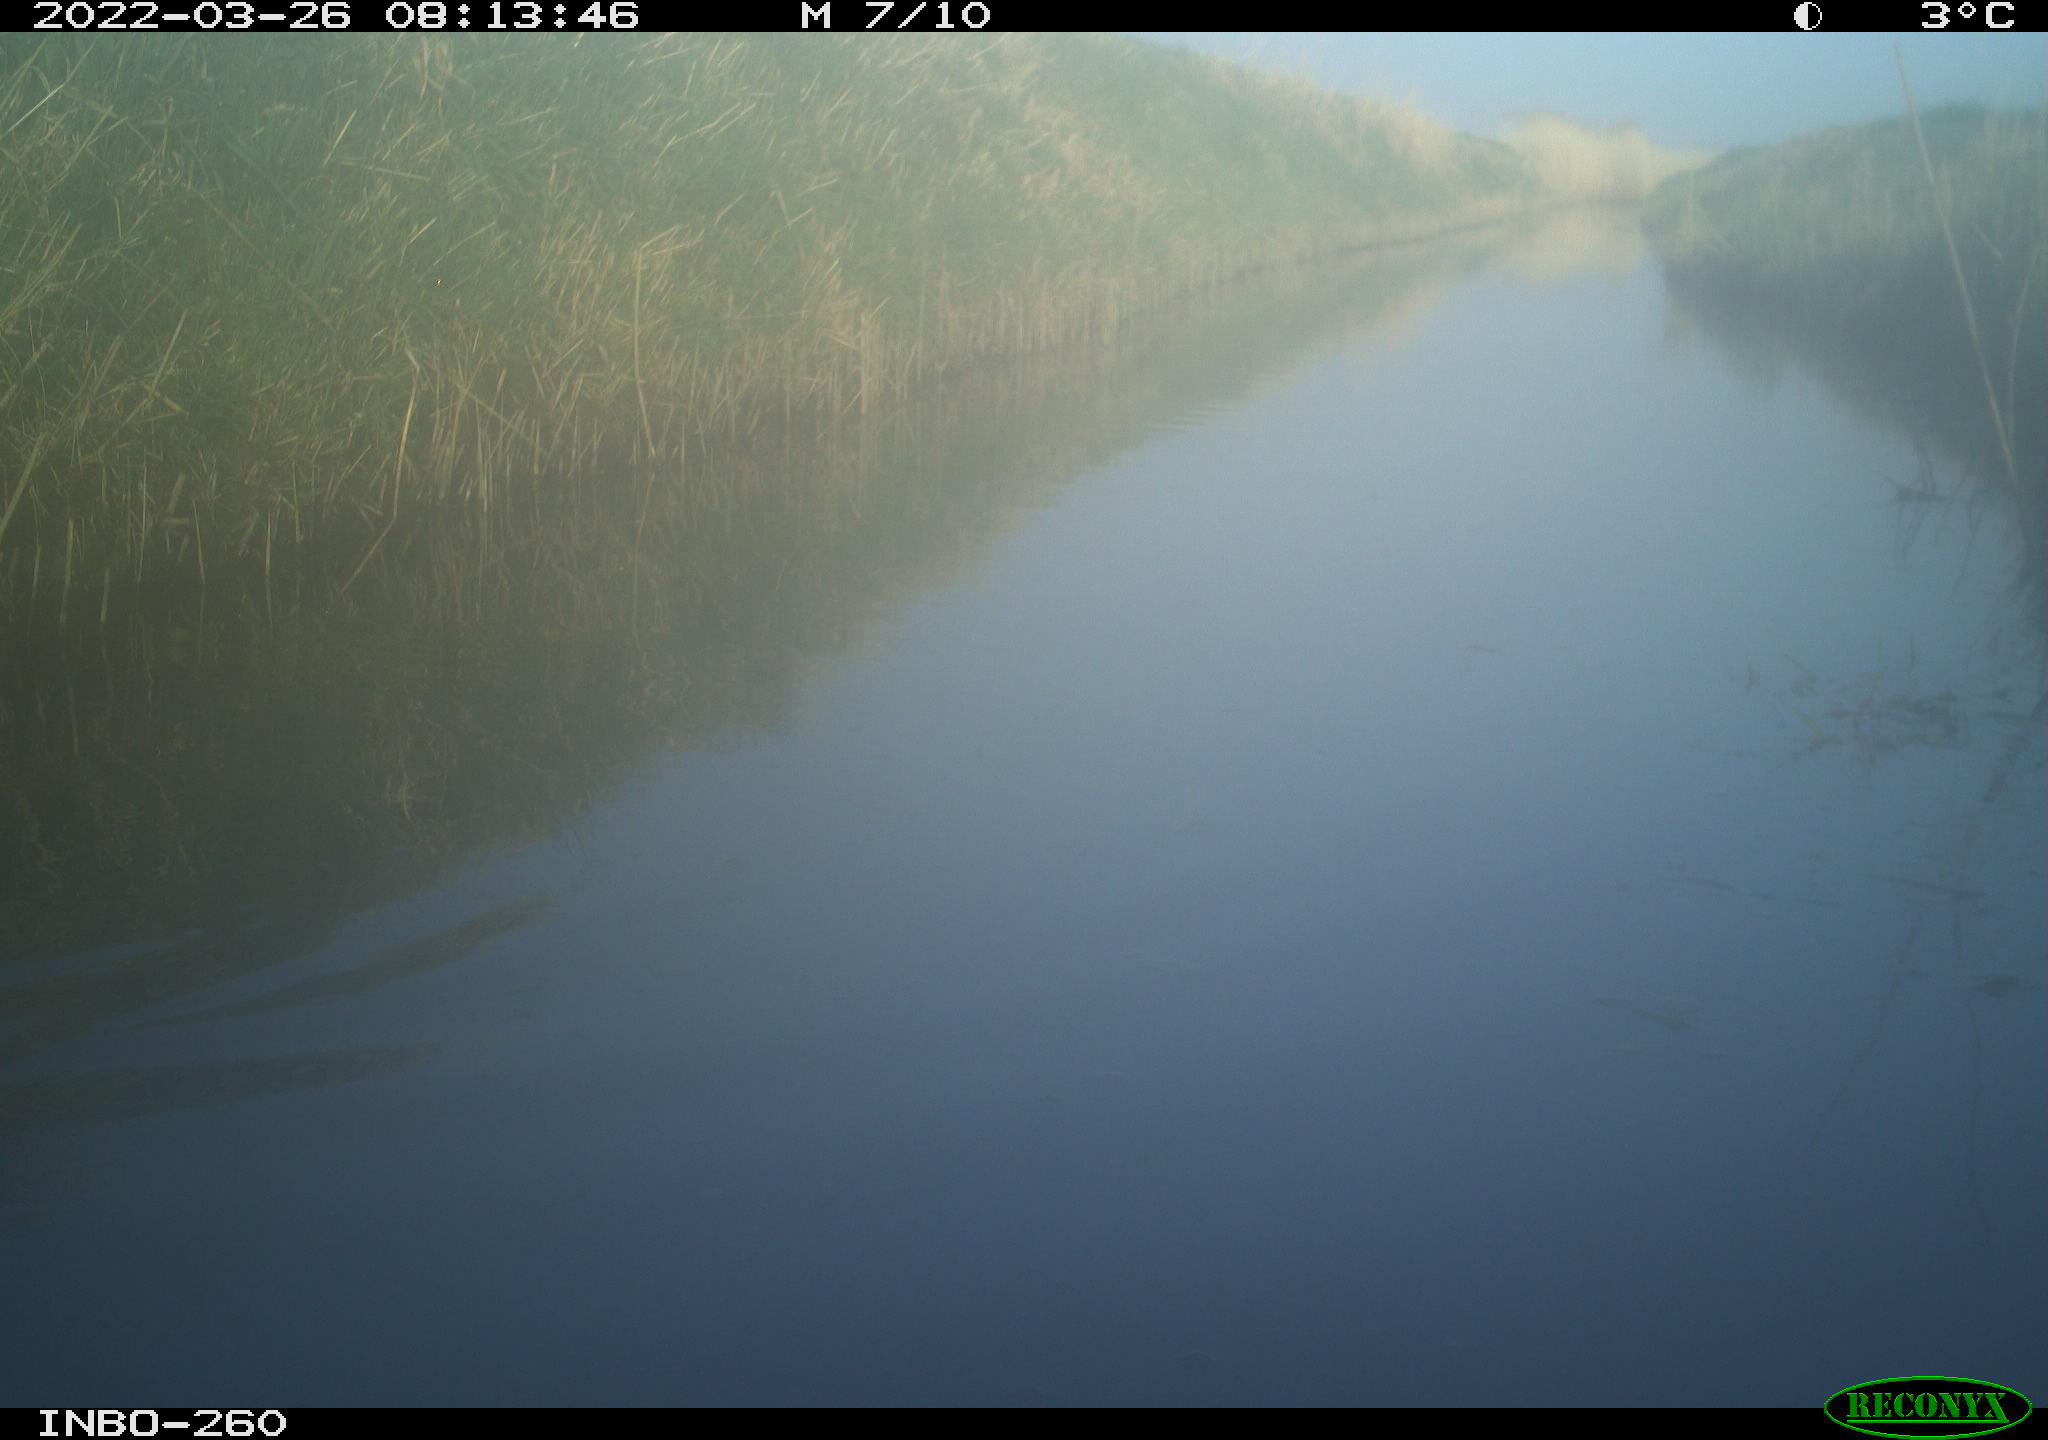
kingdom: Animalia
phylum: Chordata
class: Aves
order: Gruiformes
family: Rallidae
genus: Fulica
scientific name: Fulica atra
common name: Eurasian coot
